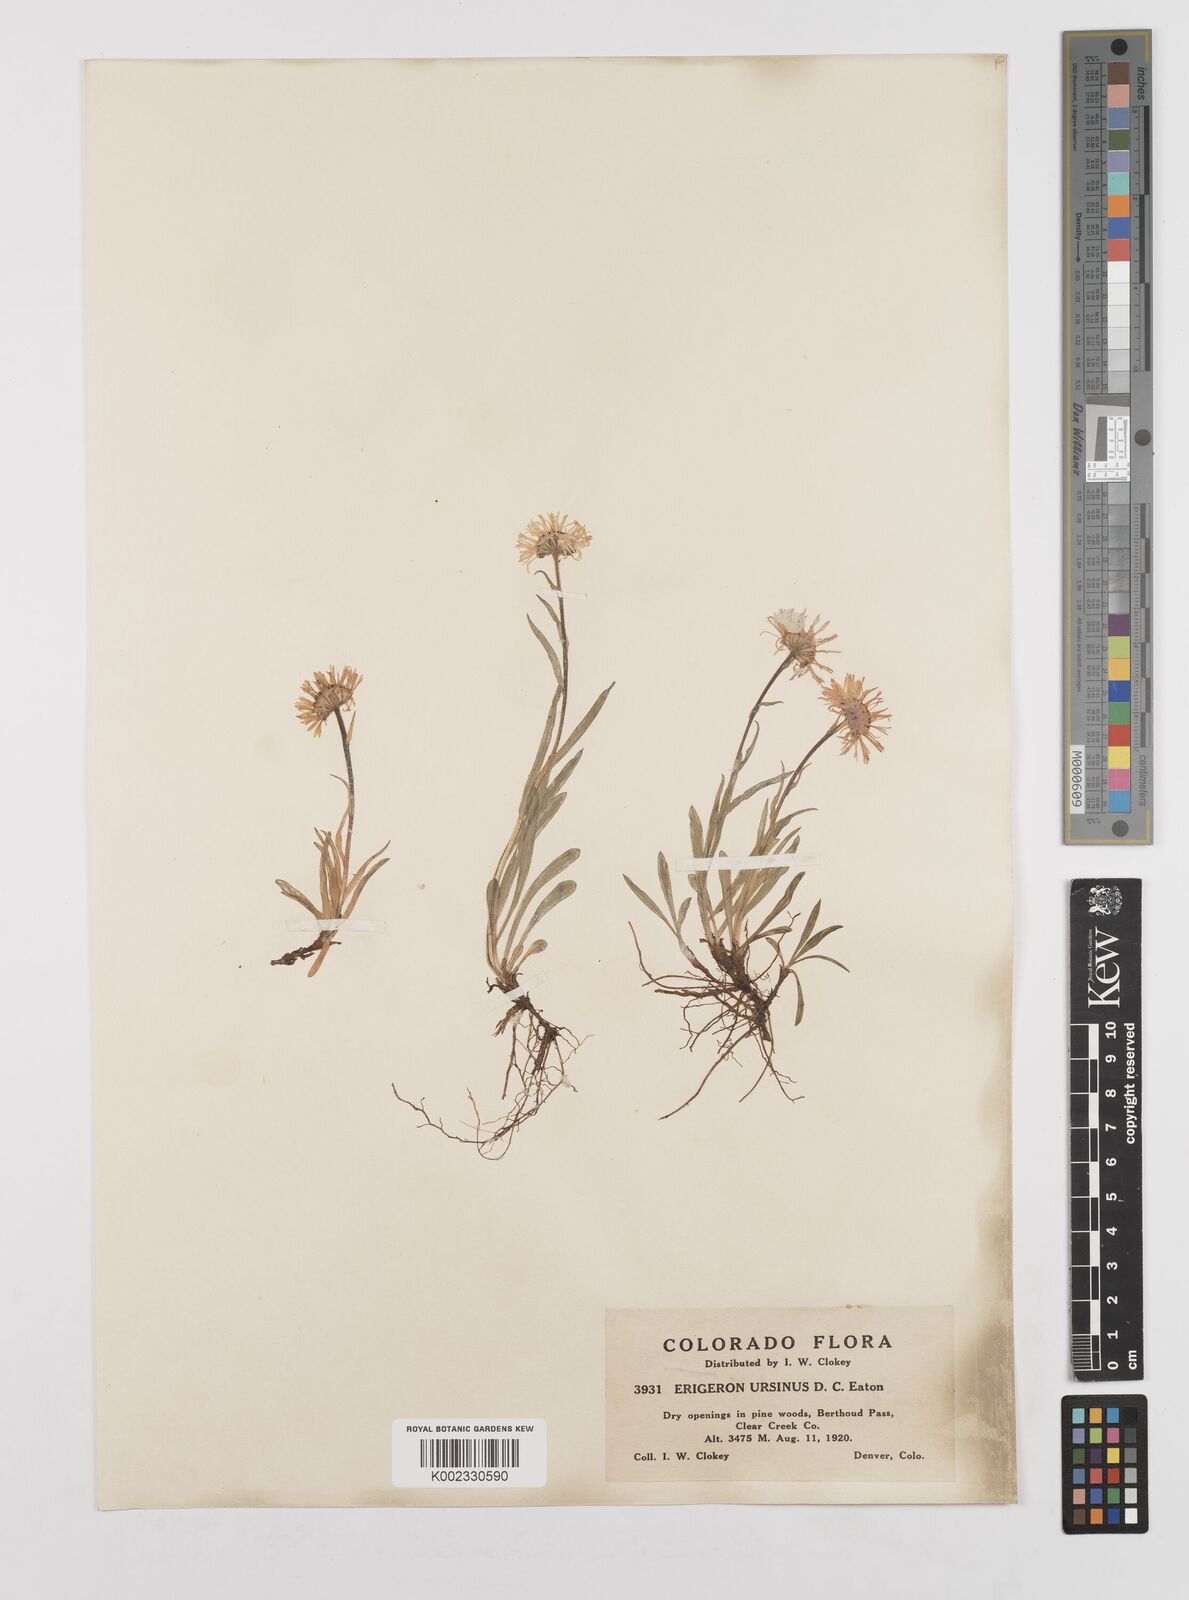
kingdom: Plantae
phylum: Tracheophyta
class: Magnoliopsida
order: Asterales
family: Asteraceae
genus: Erigeron
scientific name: Erigeron ursinus
